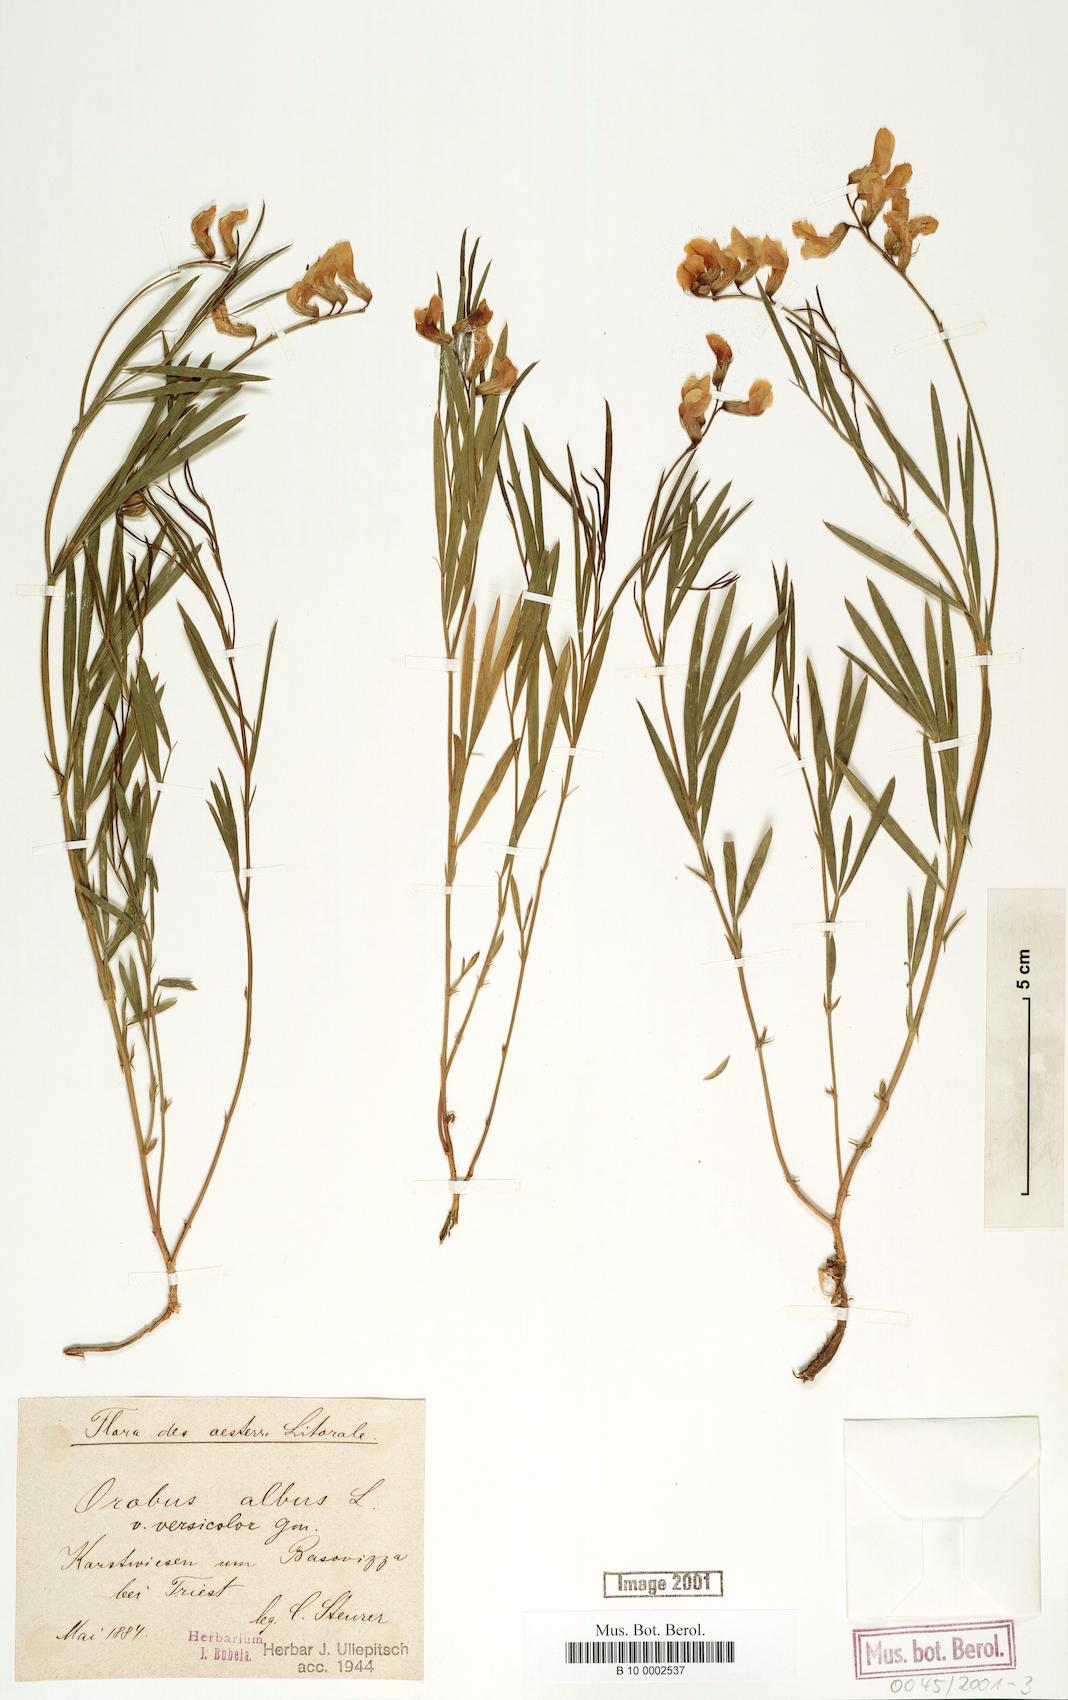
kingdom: Plantae
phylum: Tracheophyta
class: Magnoliopsida
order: Fabales
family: Fabaceae
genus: Lathyrus
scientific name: Lathyrus pannonicus
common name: Pea
